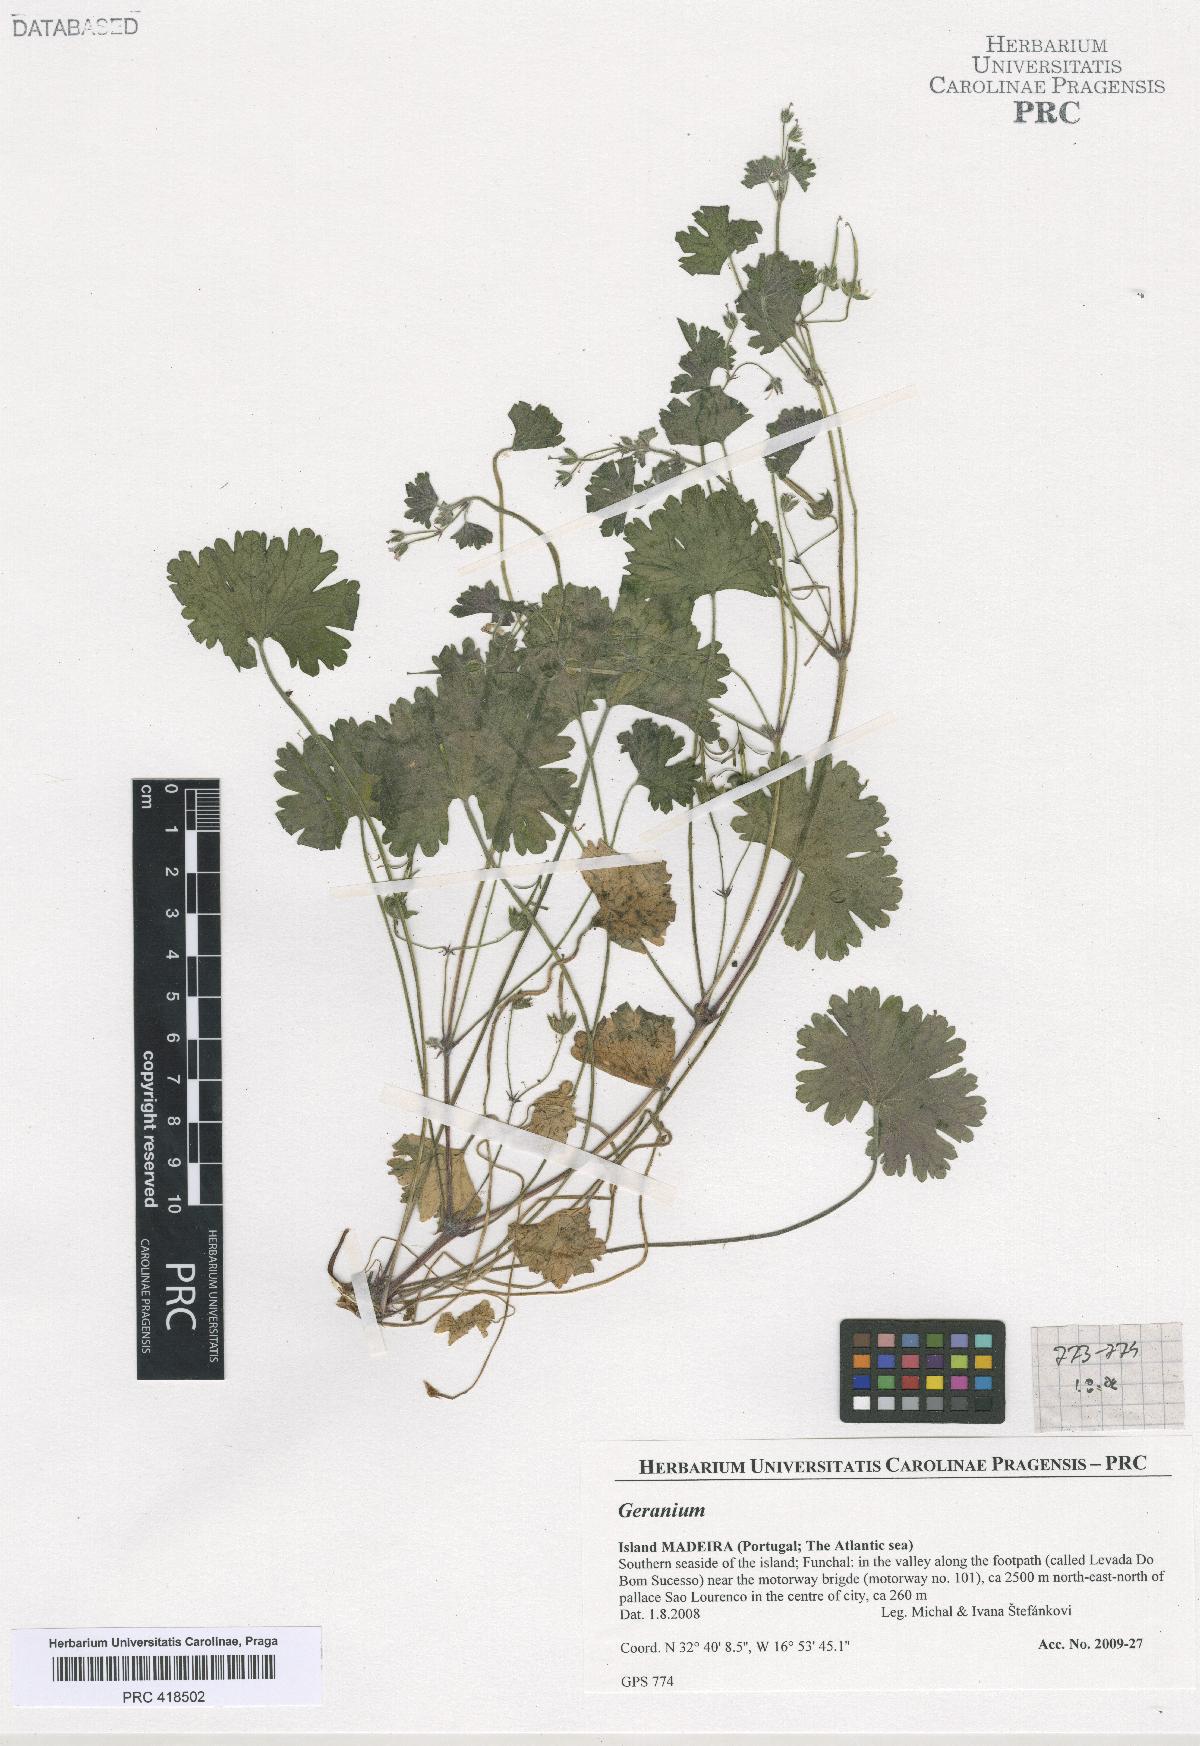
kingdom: Plantae
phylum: Tracheophyta
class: Magnoliopsida
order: Geraniales
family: Geraniaceae
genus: Geranium
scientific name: Geranium rotundifolium
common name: Round-leaved crane's-bill
